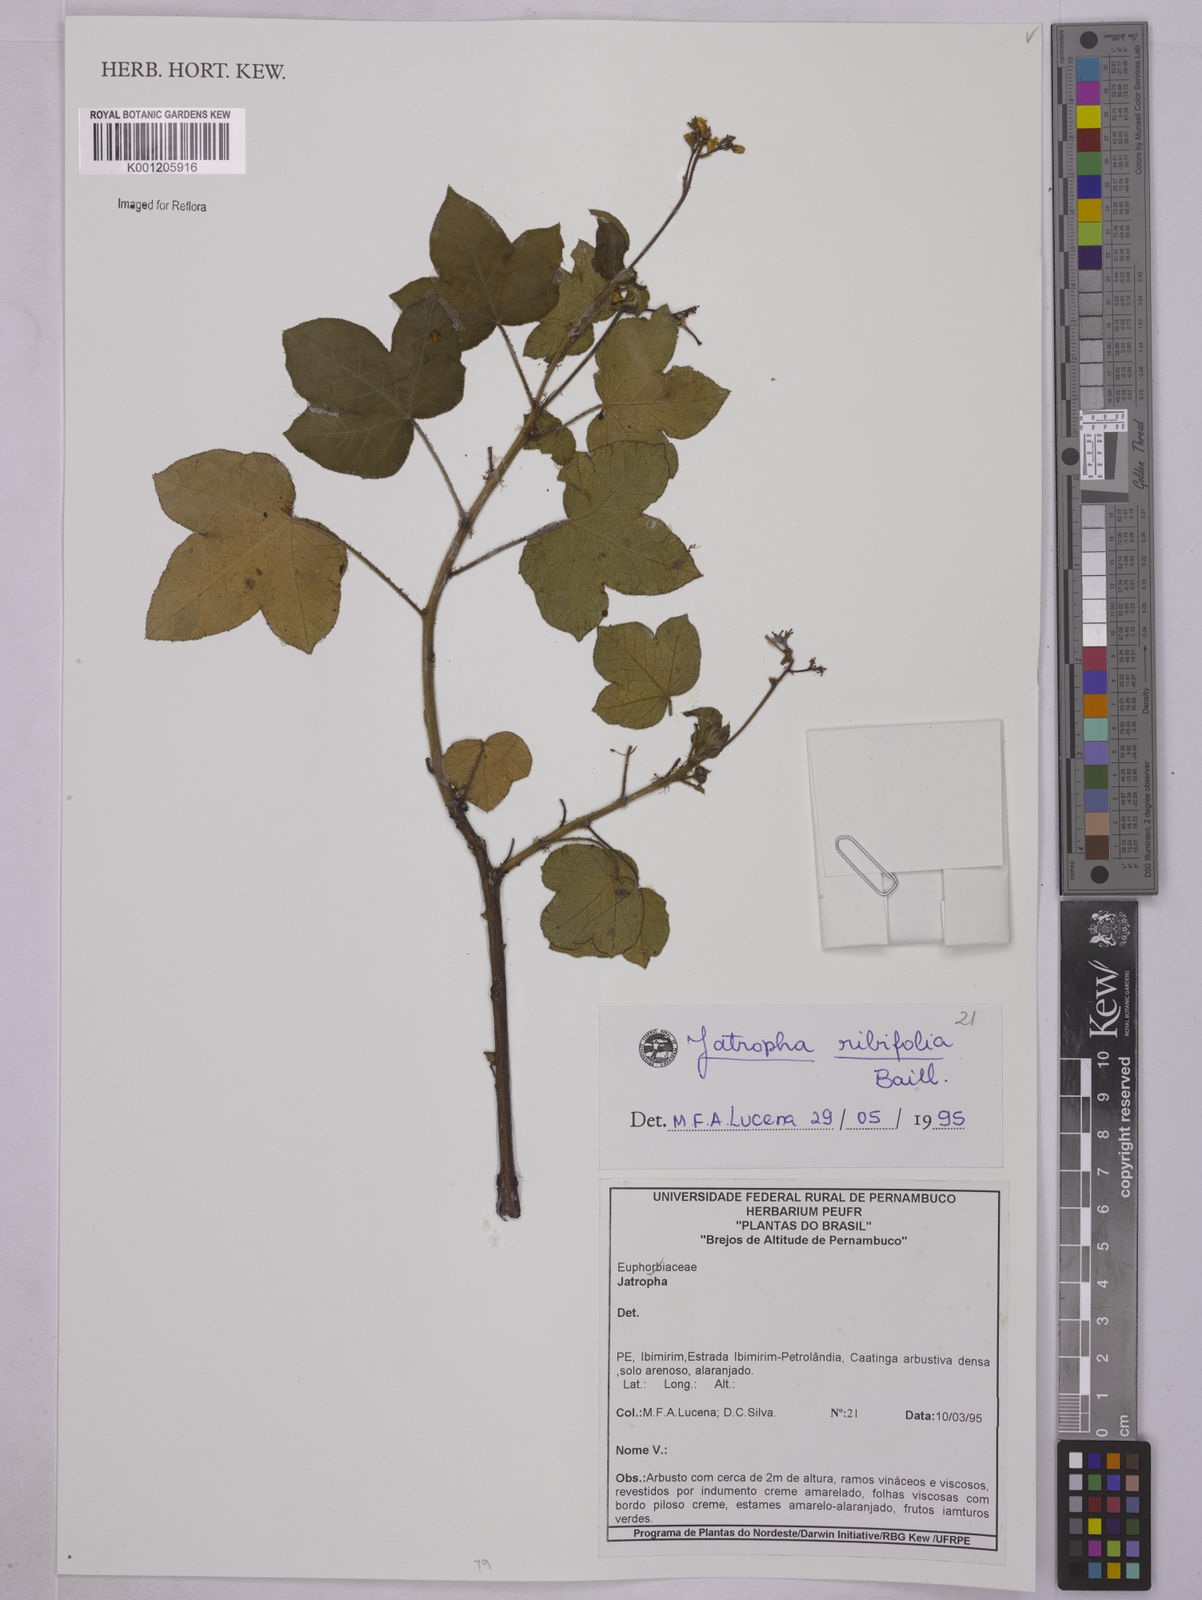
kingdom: Plantae
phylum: Tracheophyta
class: Magnoliopsida
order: Malpighiales
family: Euphorbiaceae
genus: Jatropha
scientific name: Jatropha ribifolia
